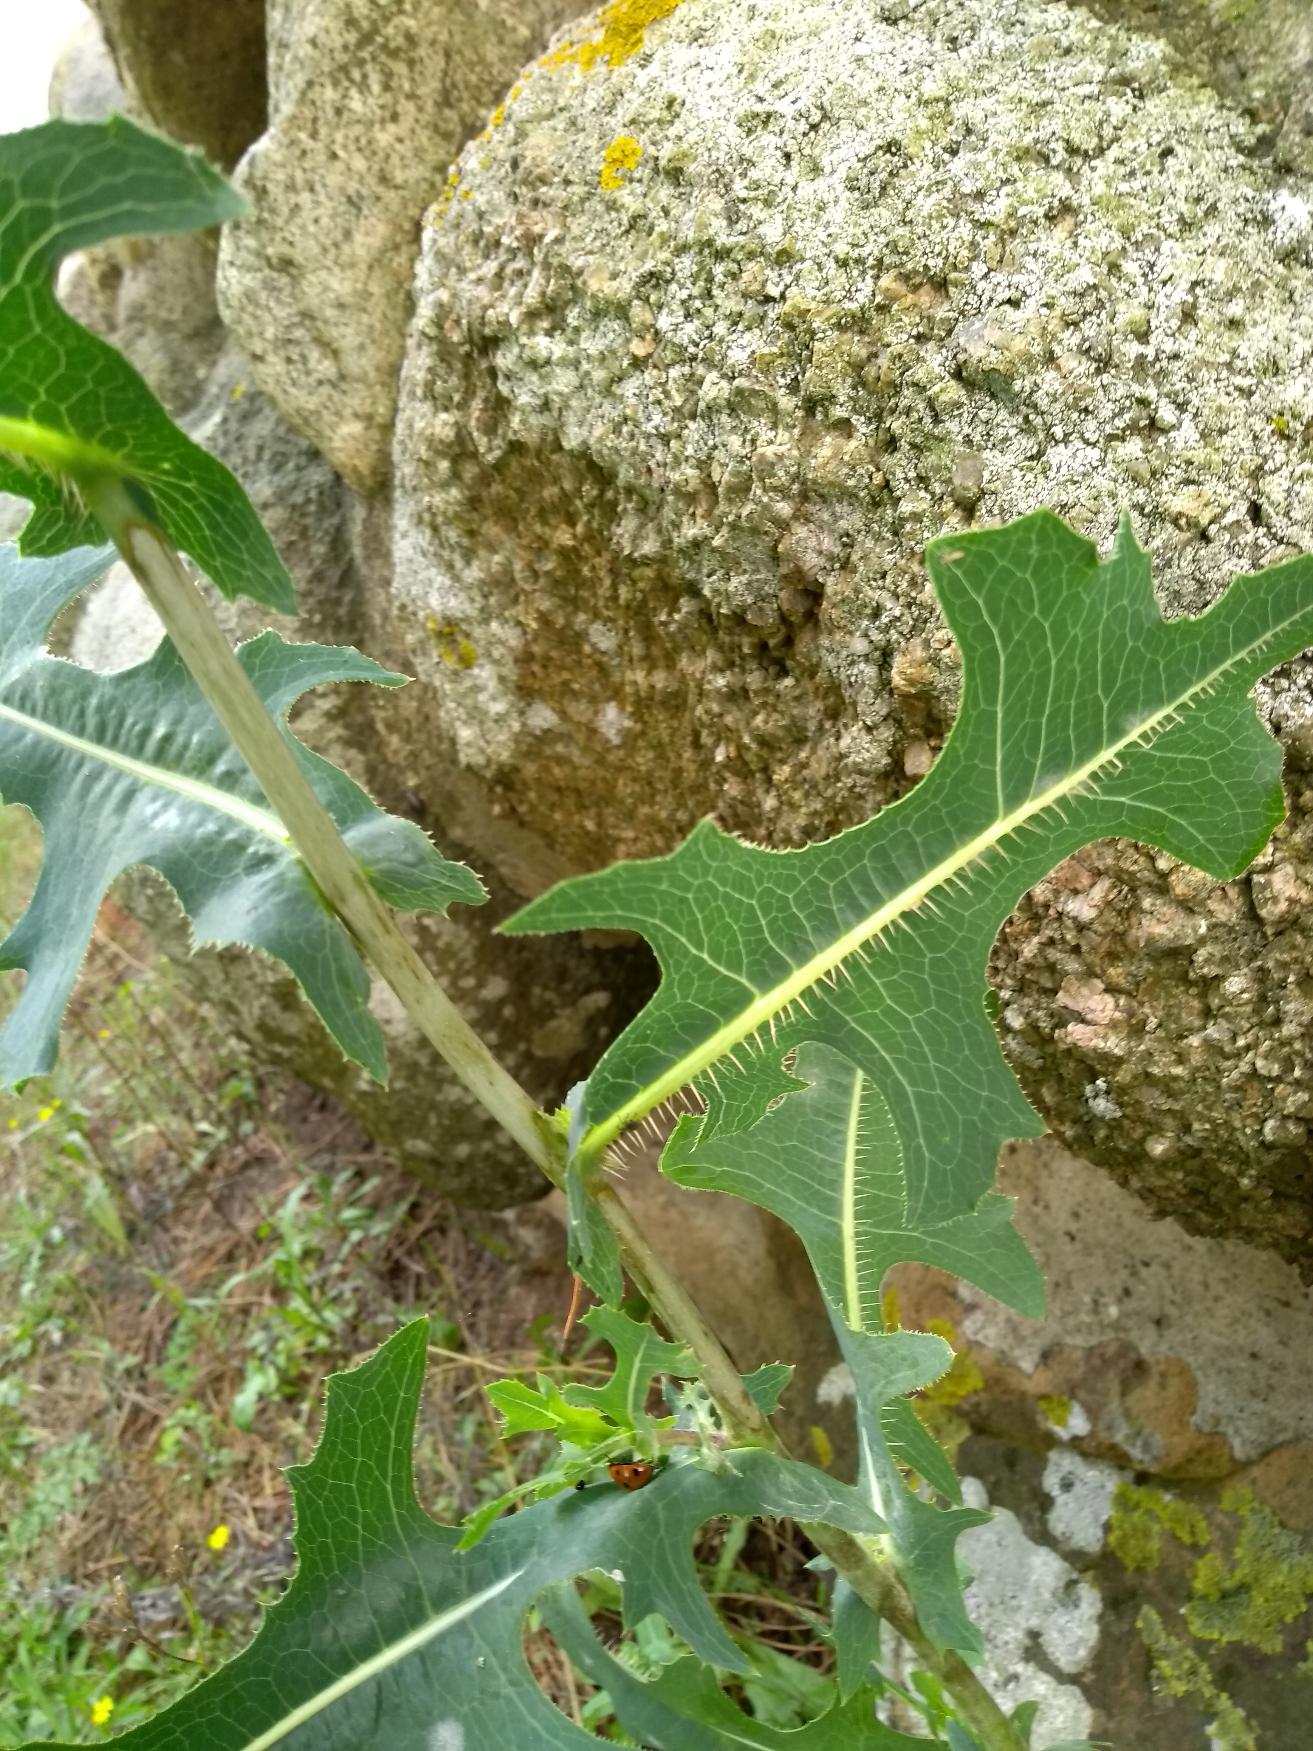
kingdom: Plantae
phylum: Tracheophyta
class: Magnoliopsida
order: Asterales
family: Asteraceae
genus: Lactuca
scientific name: Lactuca serriola
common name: Tornet salat
